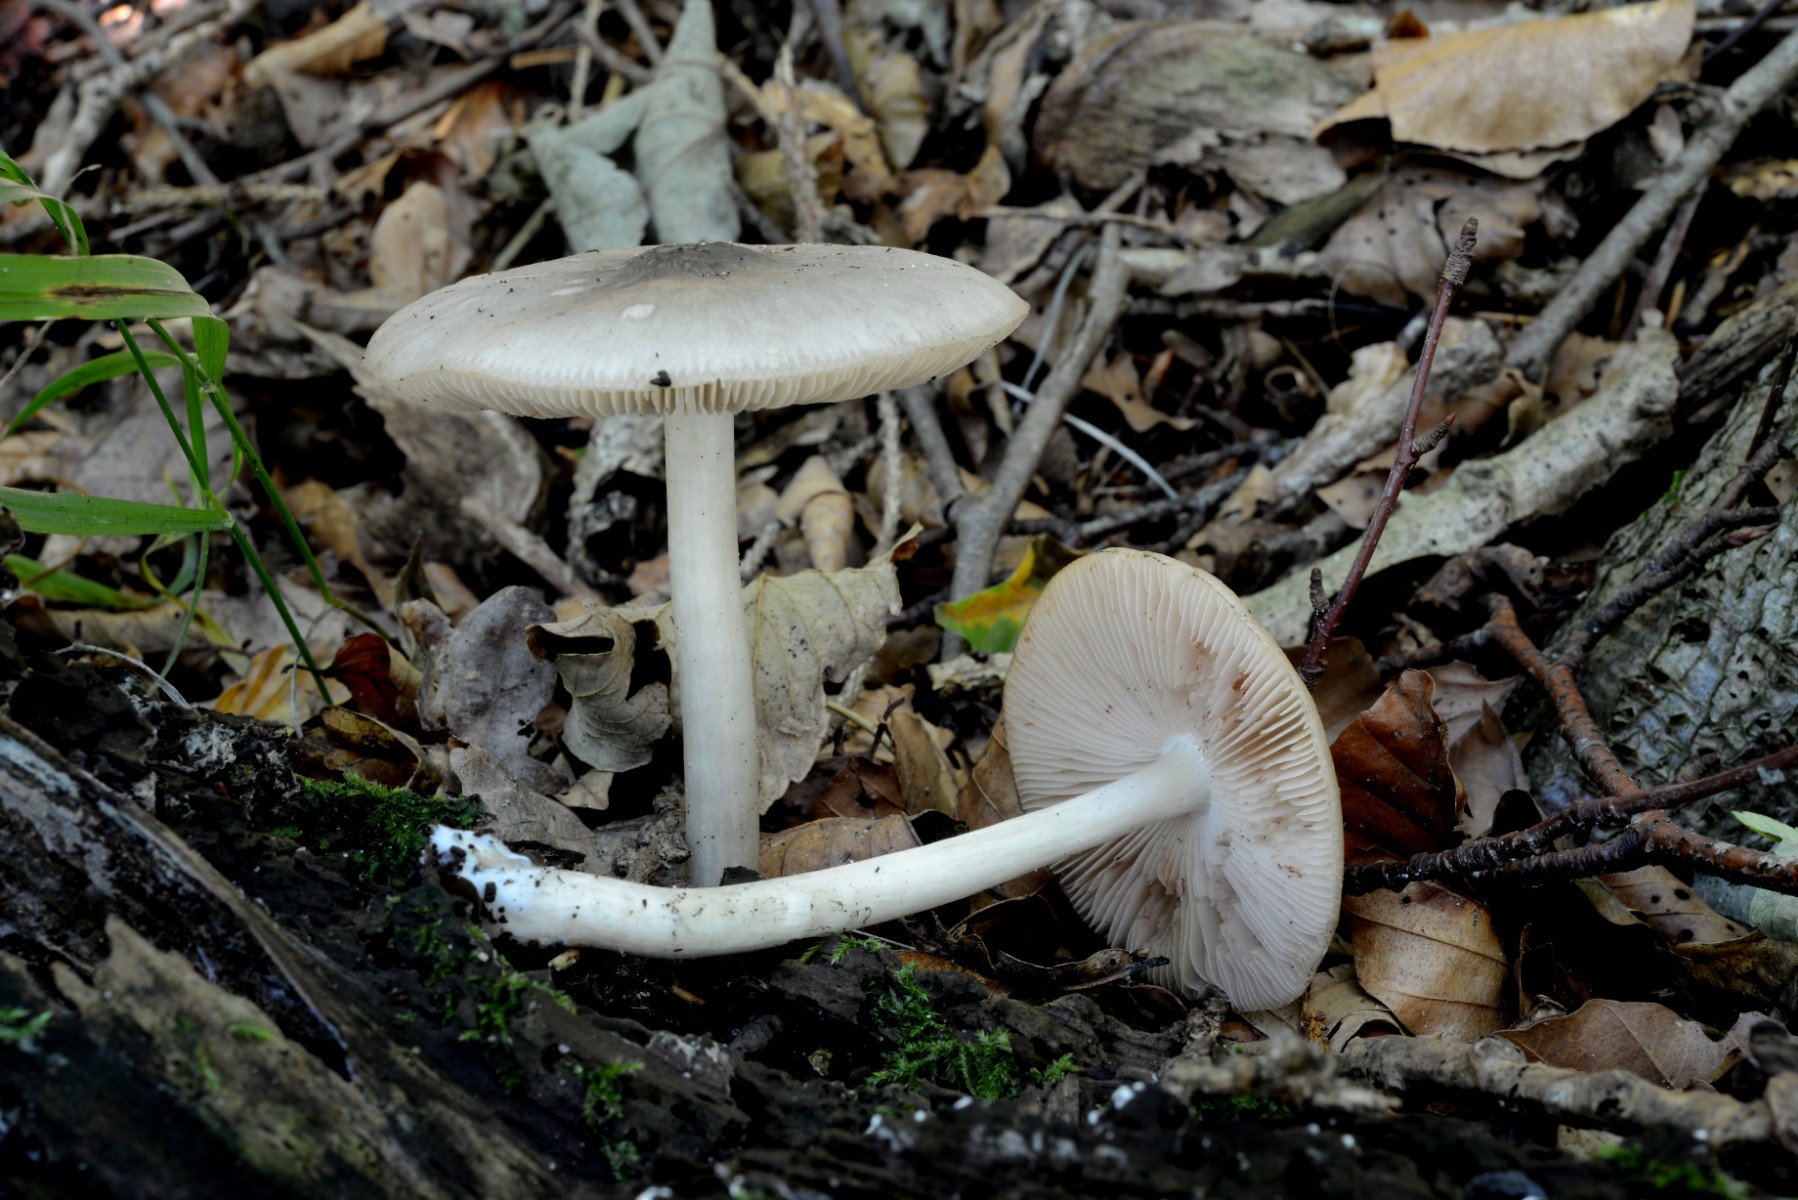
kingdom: Fungi
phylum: Basidiomycota
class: Agaricomycetes
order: Agaricales
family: Pluteaceae
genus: Pluteus
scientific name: Pluteus salicinus
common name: stiv skærmhat
